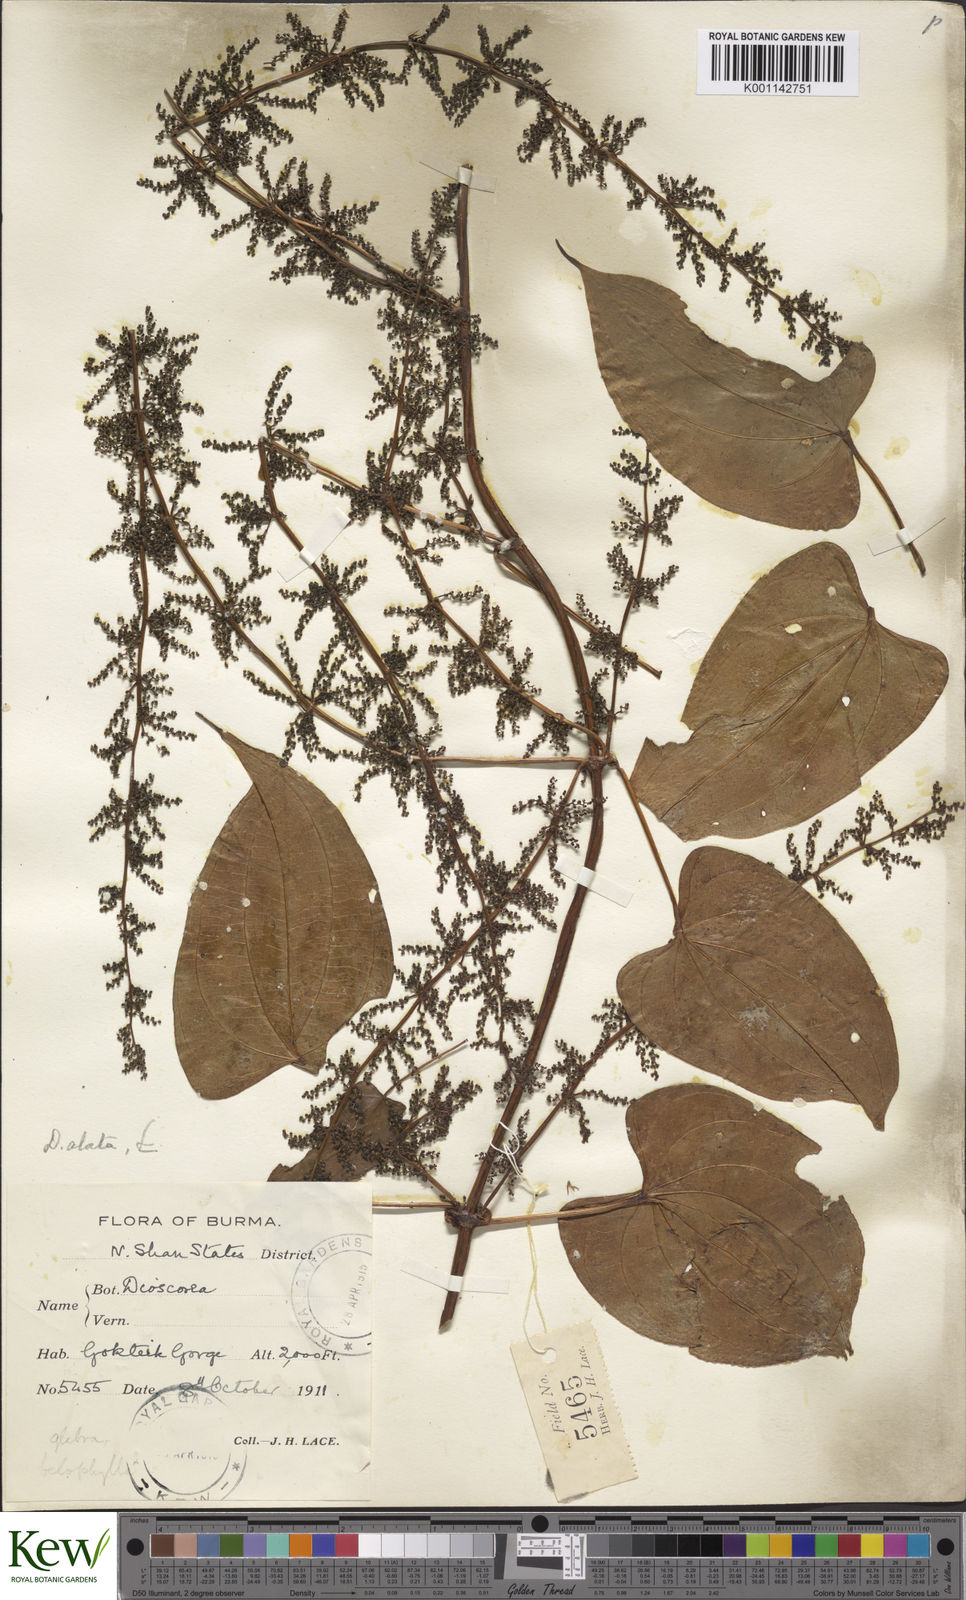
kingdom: Plantae
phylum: Tracheophyta
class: Liliopsida
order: Dioscoreales
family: Dioscoreaceae
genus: Dioscorea
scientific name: Dioscorea alata
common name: Water yam
